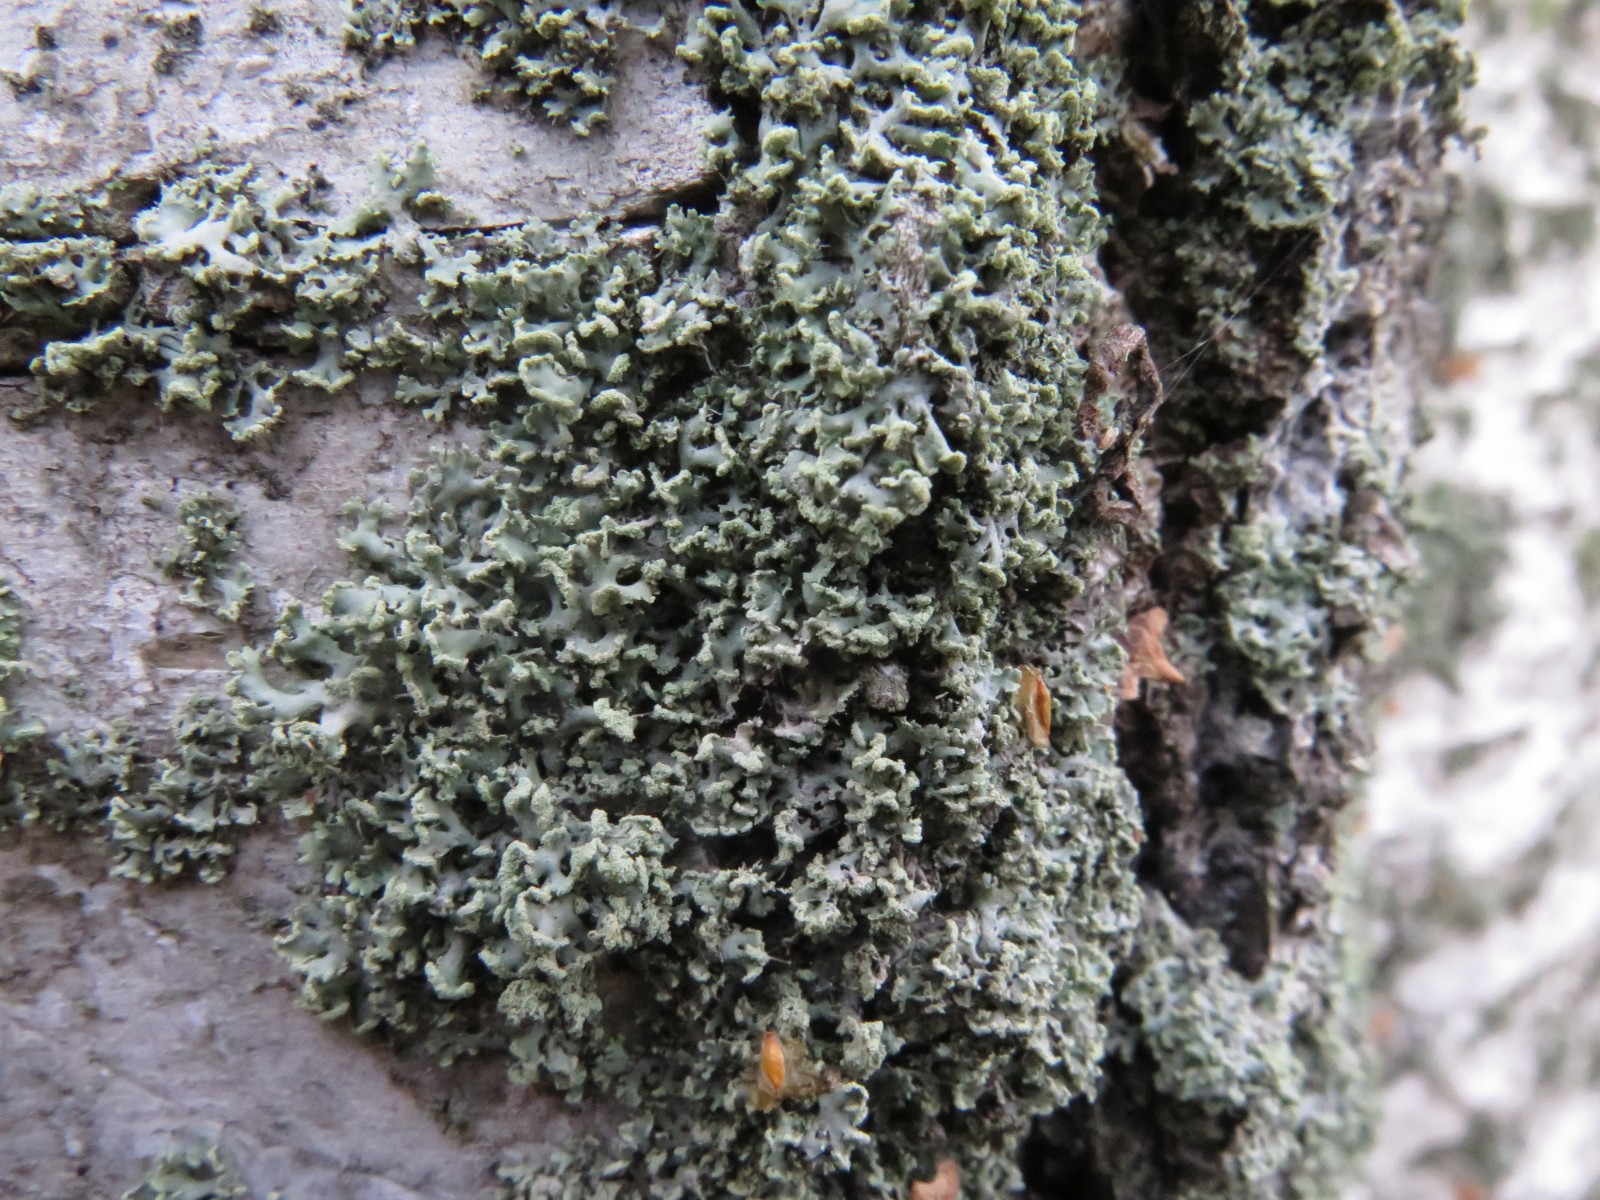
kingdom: Fungi
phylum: Ascomycota
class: Lecanoromycetes
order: Caliciales
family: Physciaceae
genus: Physcia
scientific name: Physcia tenella
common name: spæd rosetlav
